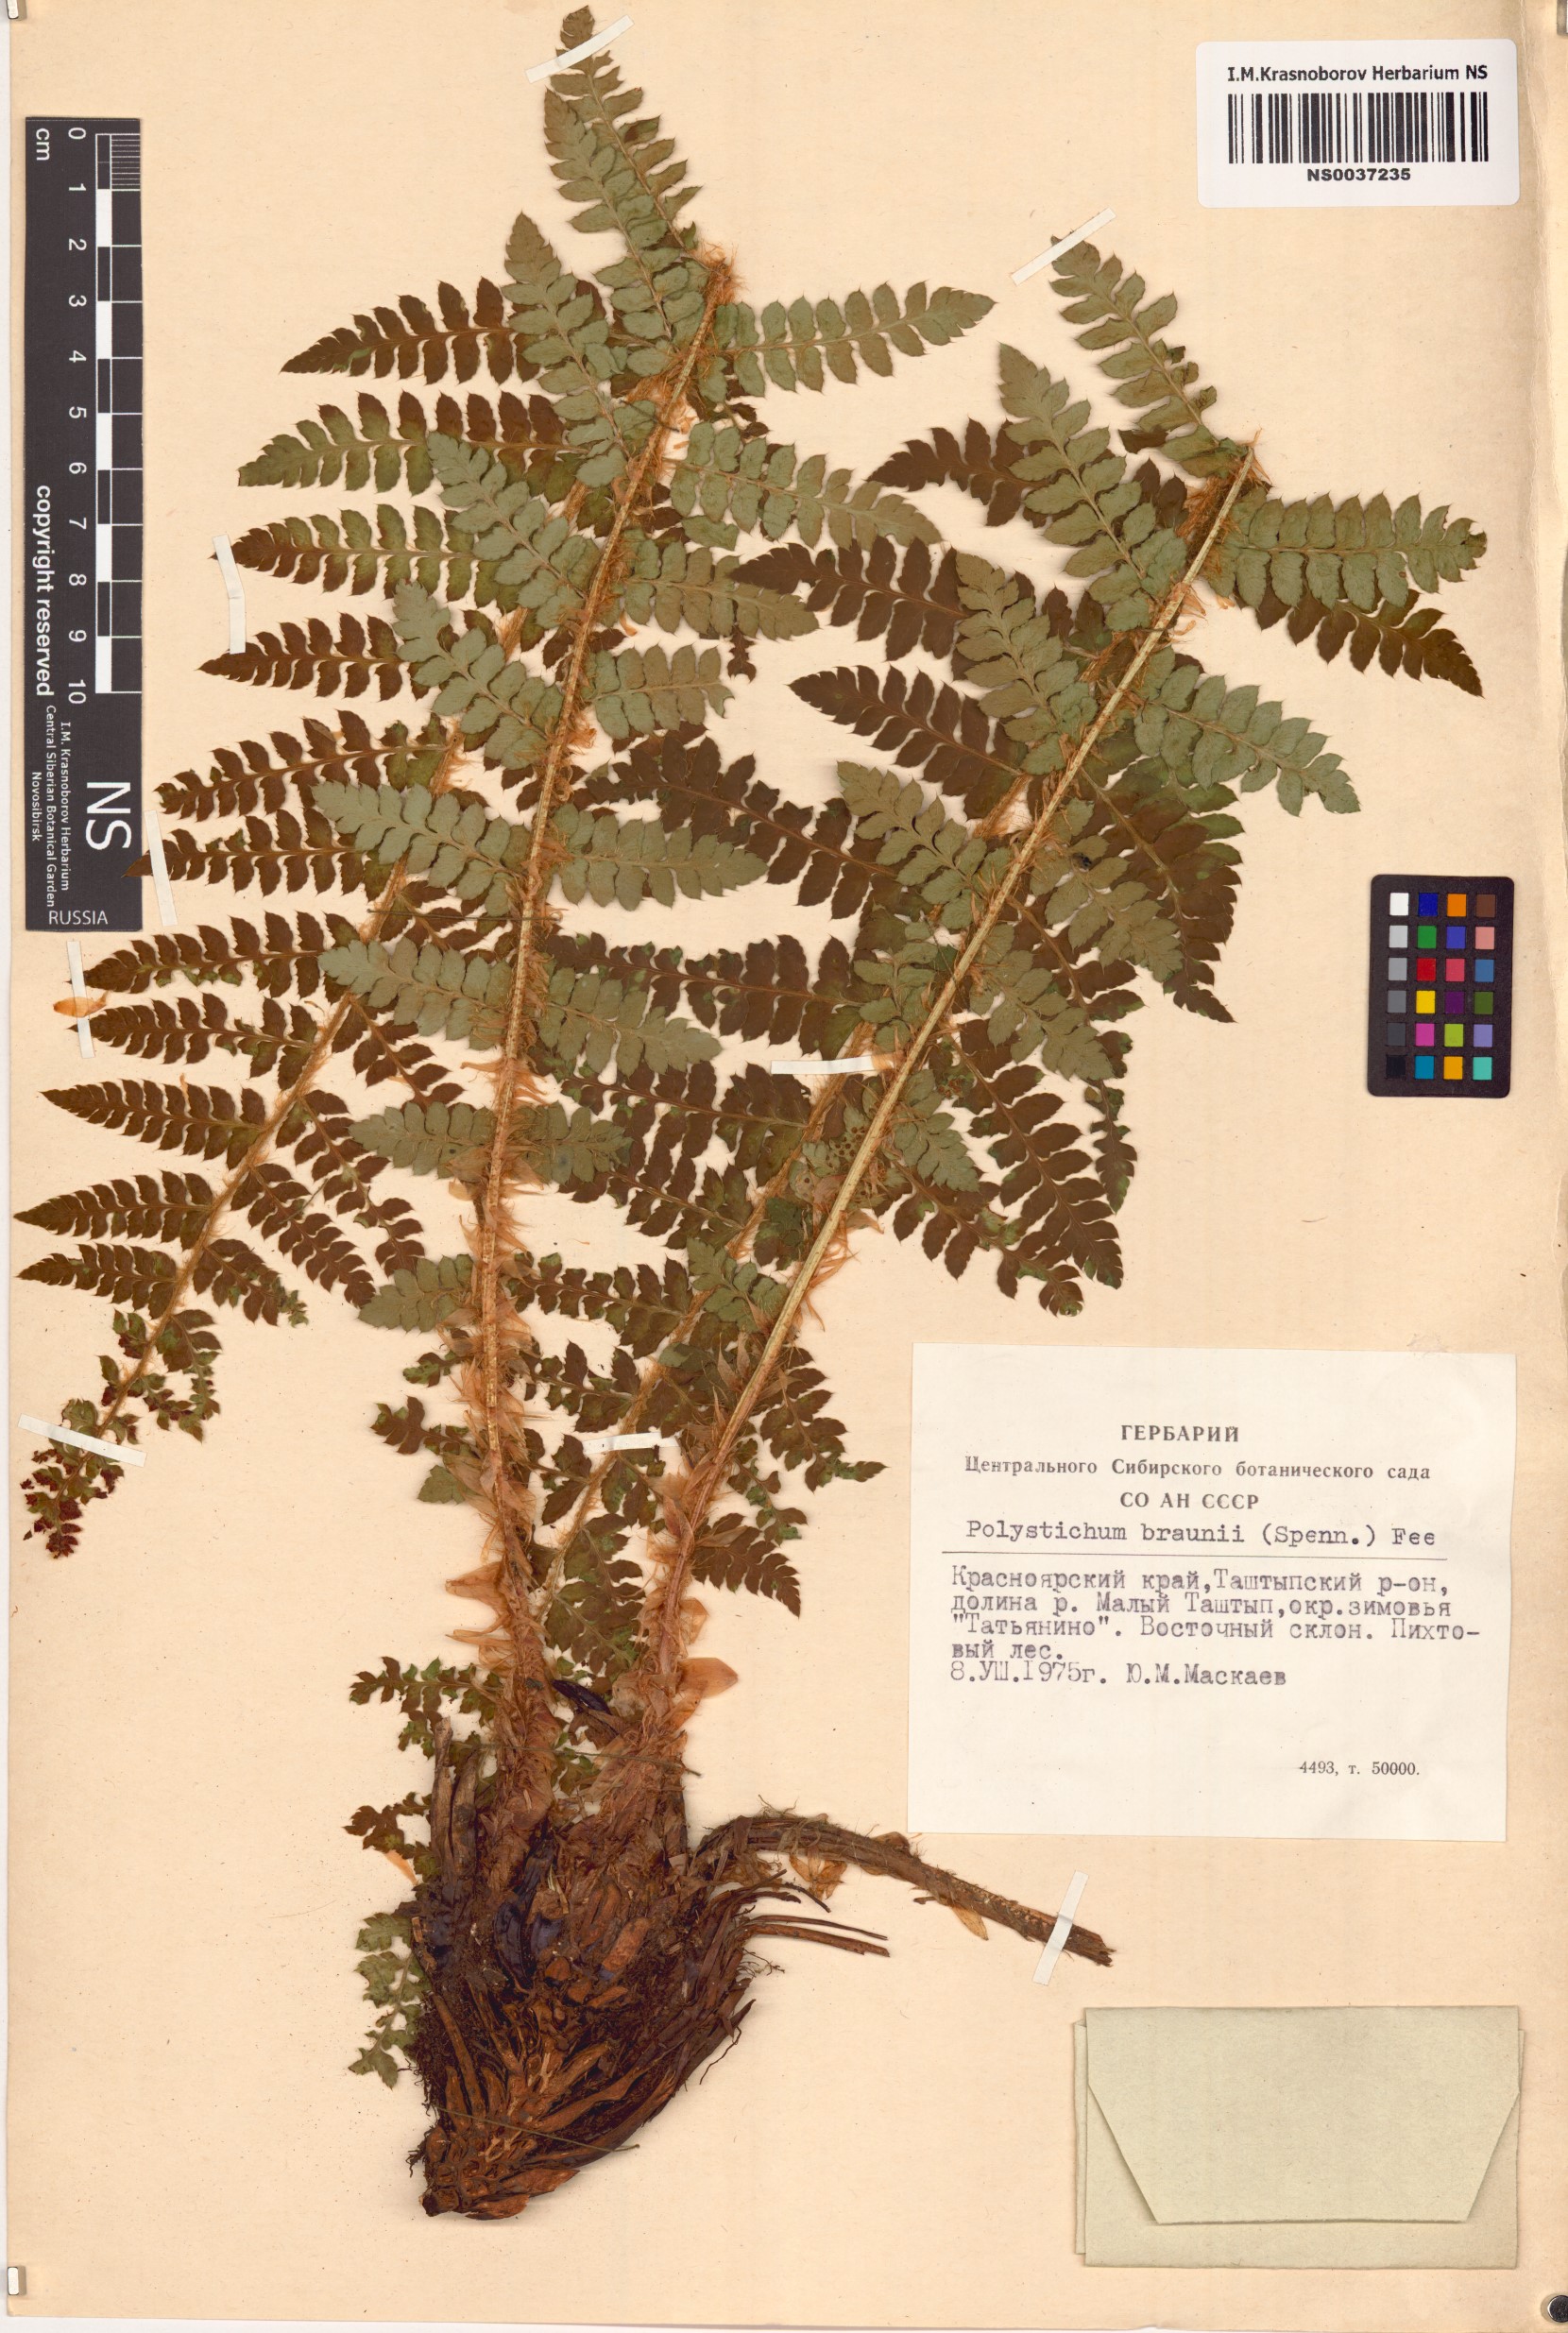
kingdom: Plantae
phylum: Tracheophyta
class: Polypodiopsida
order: Polypodiales
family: Dryopteridaceae
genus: Polystichum
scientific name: Polystichum braunii
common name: Braun's holly fern
